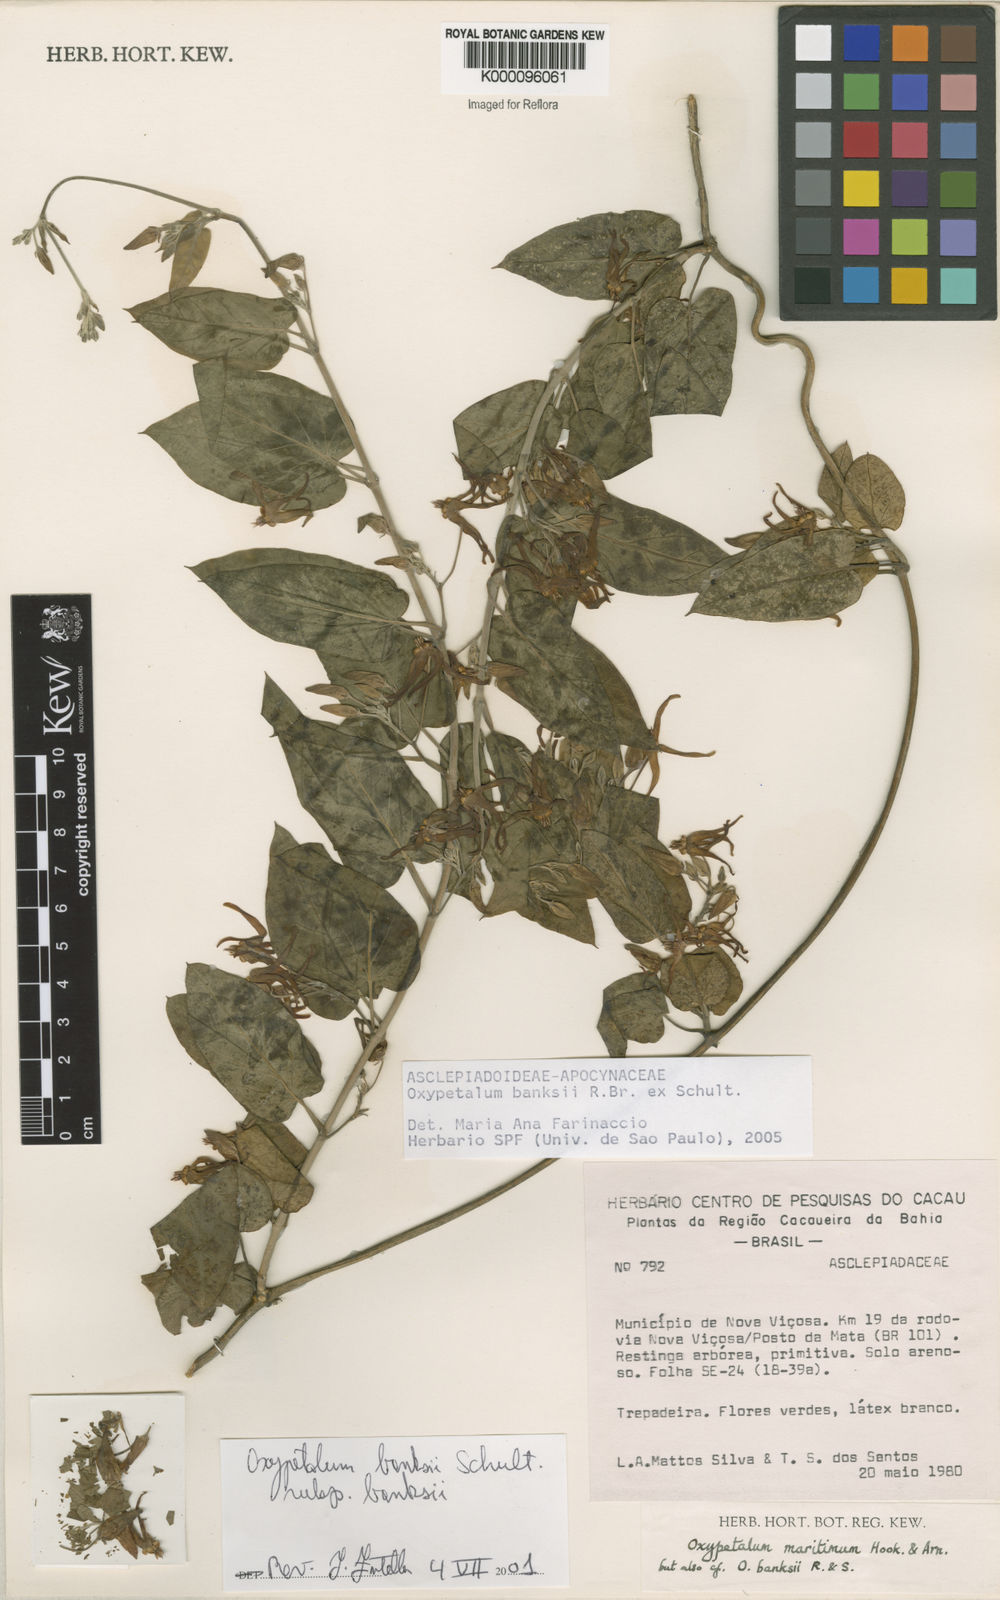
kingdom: Plantae
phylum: Tracheophyta
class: Magnoliopsida
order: Gentianales
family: Apocynaceae
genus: Oxypetalum
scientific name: Oxypetalum banksii
